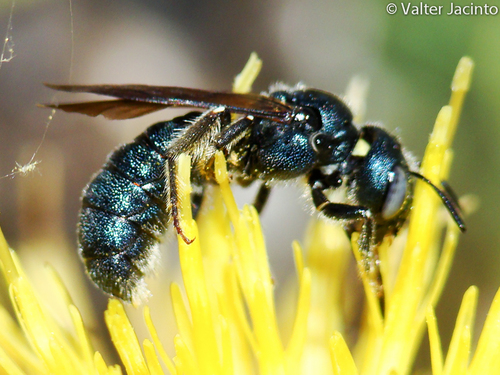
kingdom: Animalia
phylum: Arthropoda
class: Insecta
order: Hymenoptera
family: Apidae
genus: Ceratina
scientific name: Ceratina cyanea
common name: Little blue carpenter bee
